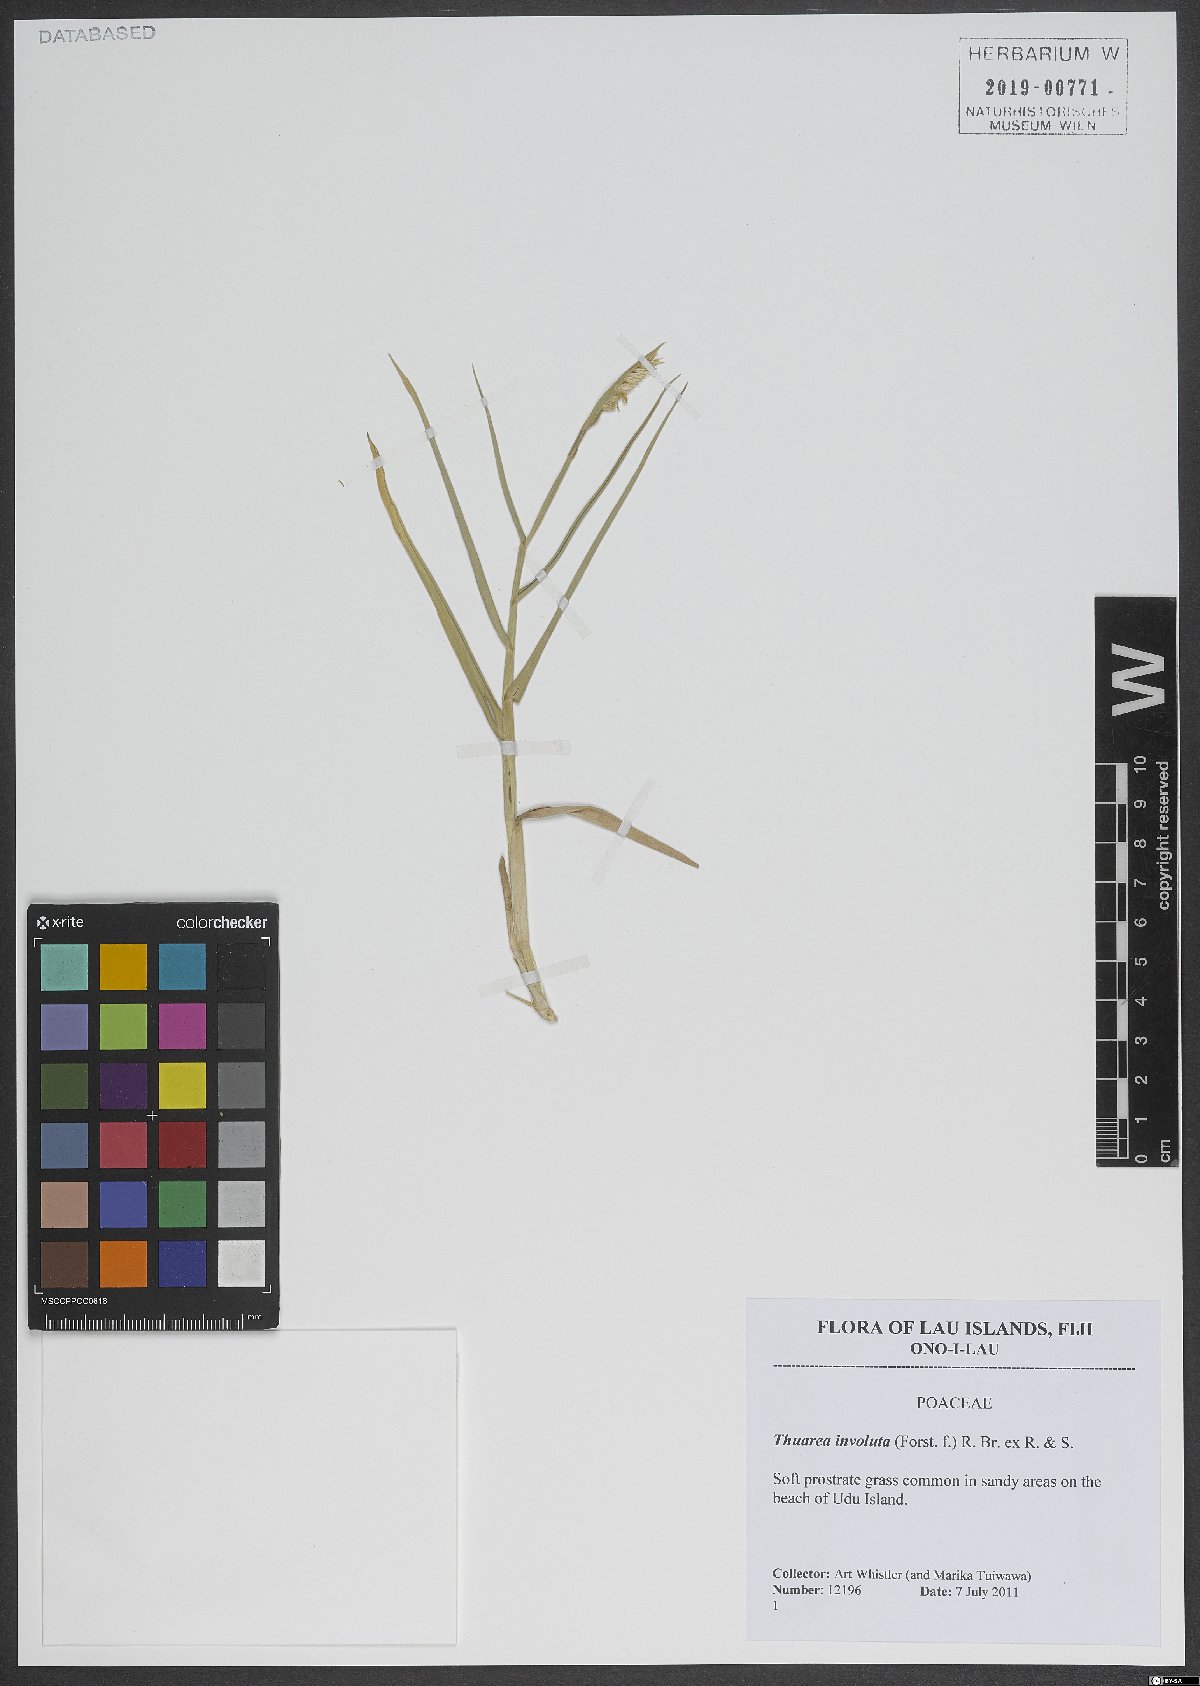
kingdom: Plantae
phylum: Tracheophyta
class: Liliopsida
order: Poales
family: Poaceae
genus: Thuarea
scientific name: Thuarea involuta
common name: Tropical beach grass
